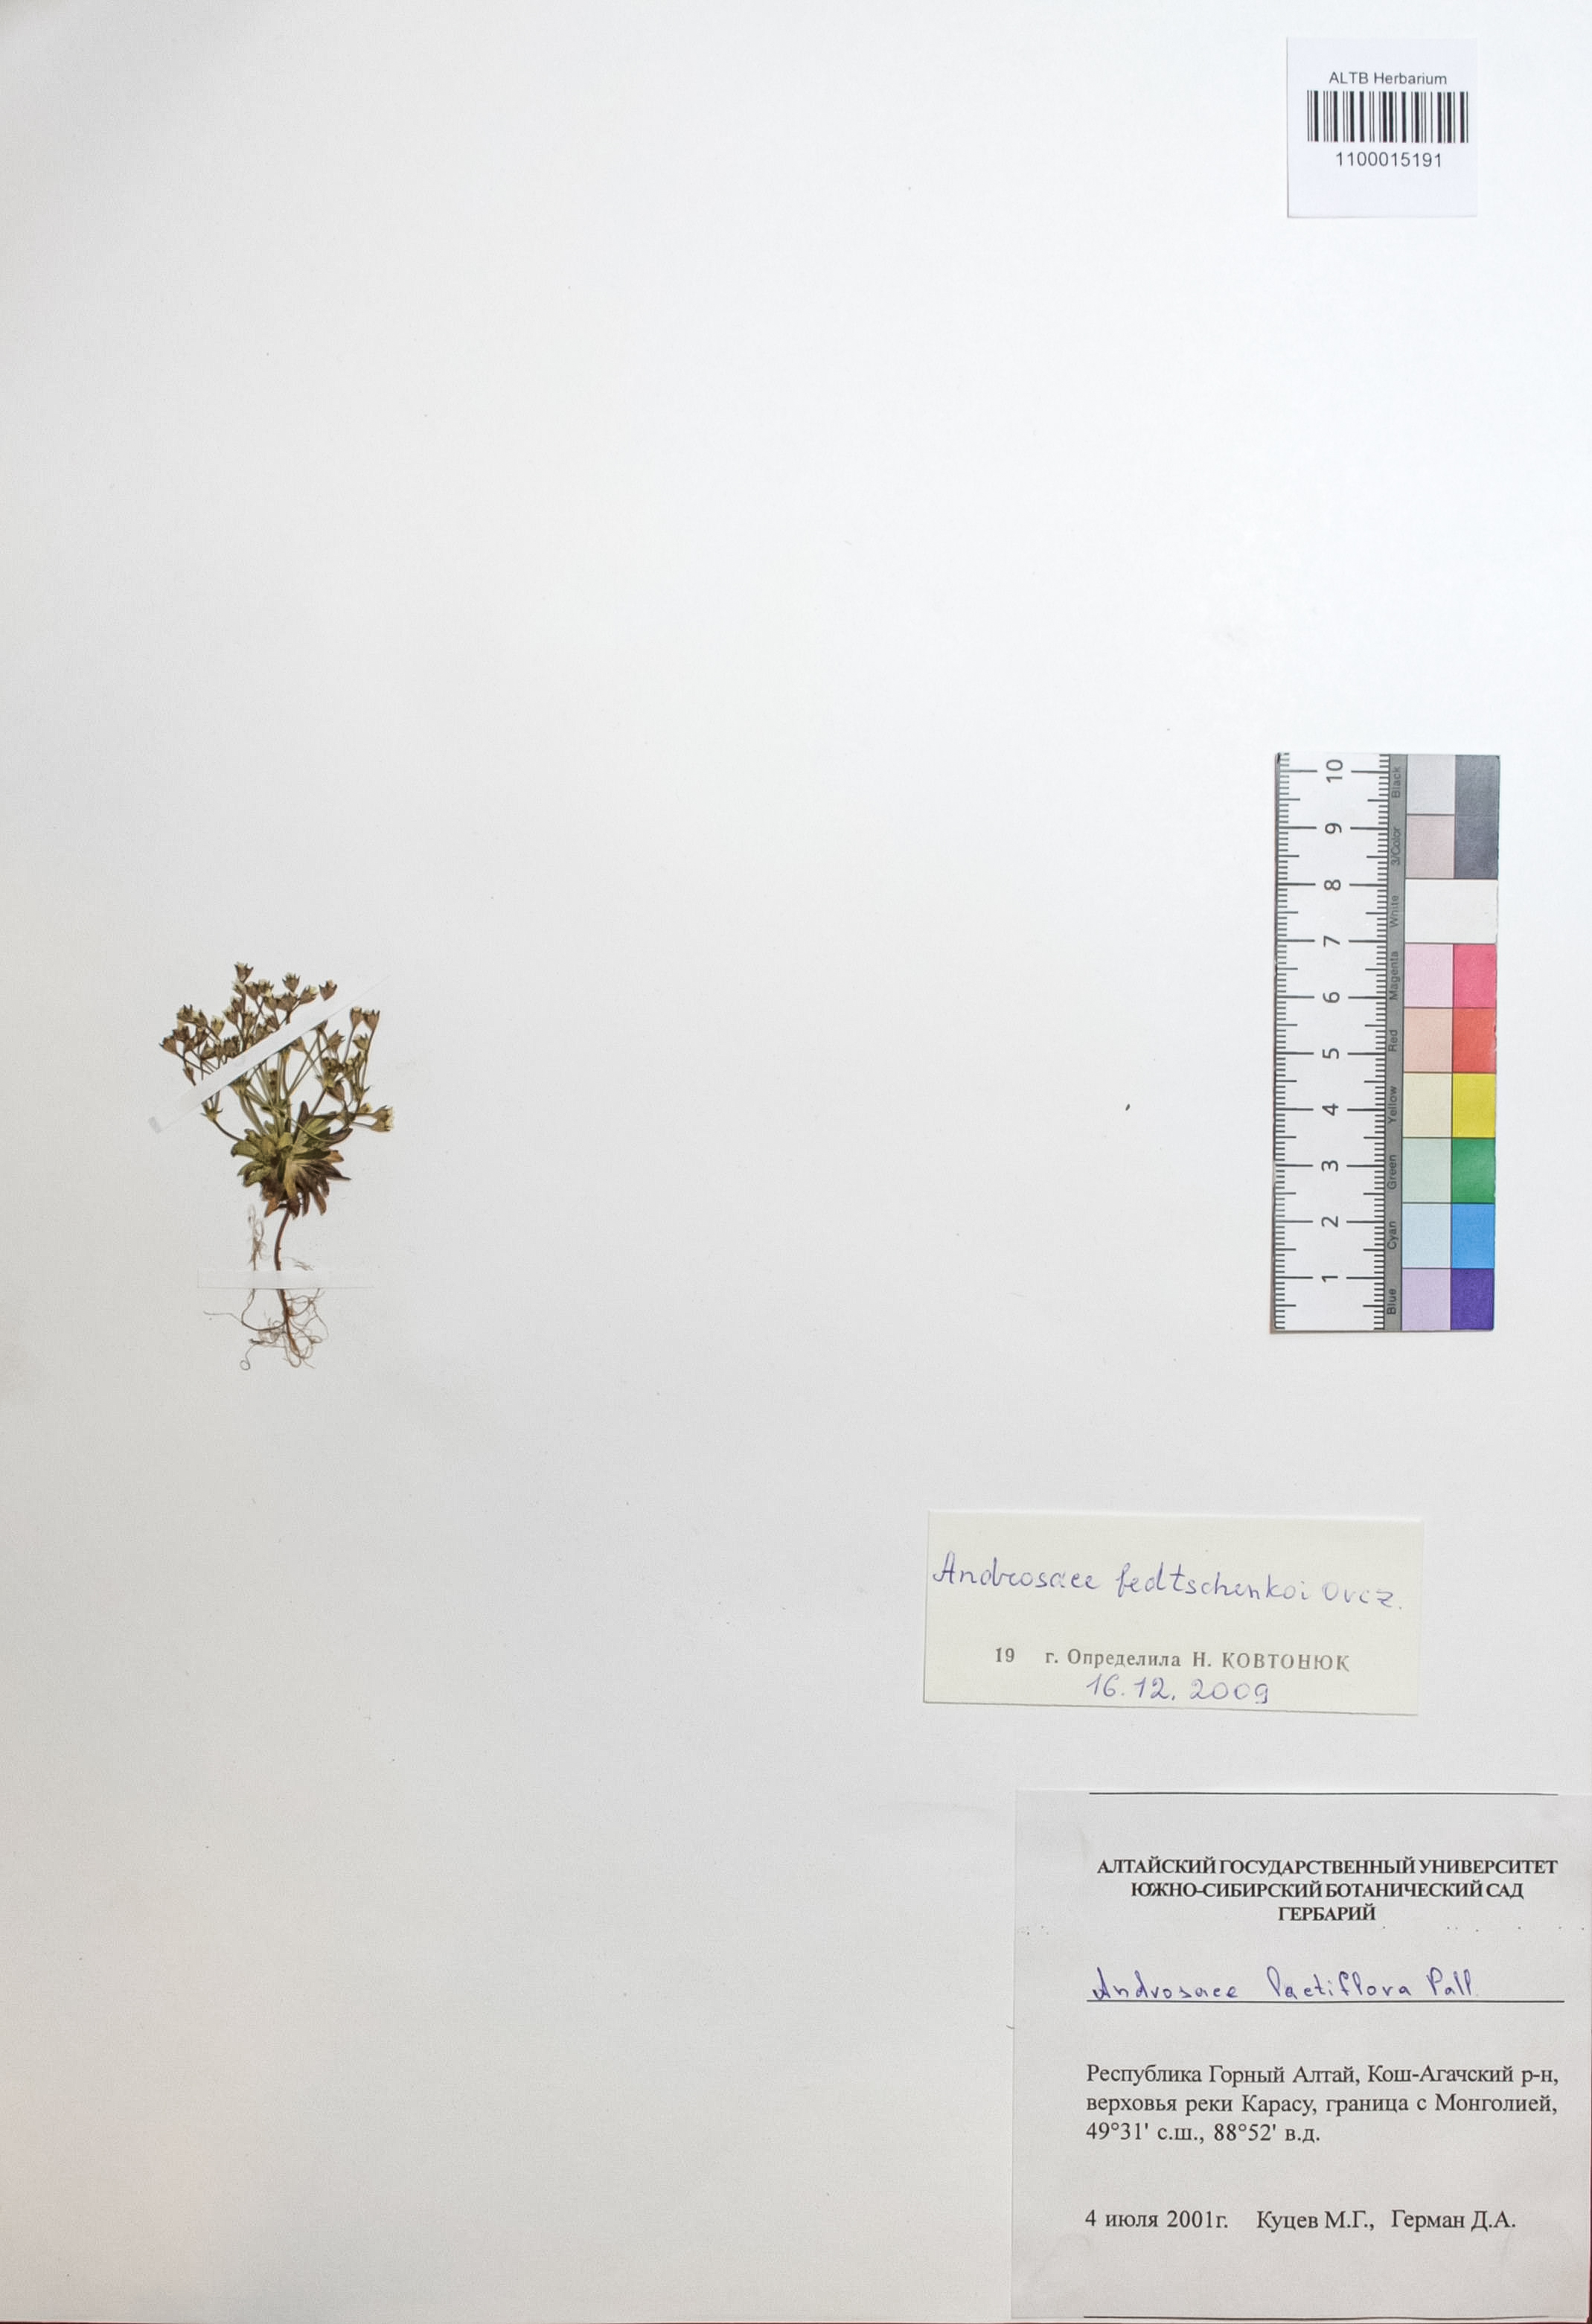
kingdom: Plantae
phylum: Tracheophyta
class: Magnoliopsida
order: Ericales
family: Primulaceae
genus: Androsace
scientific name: Androsace fedtschenkoi
